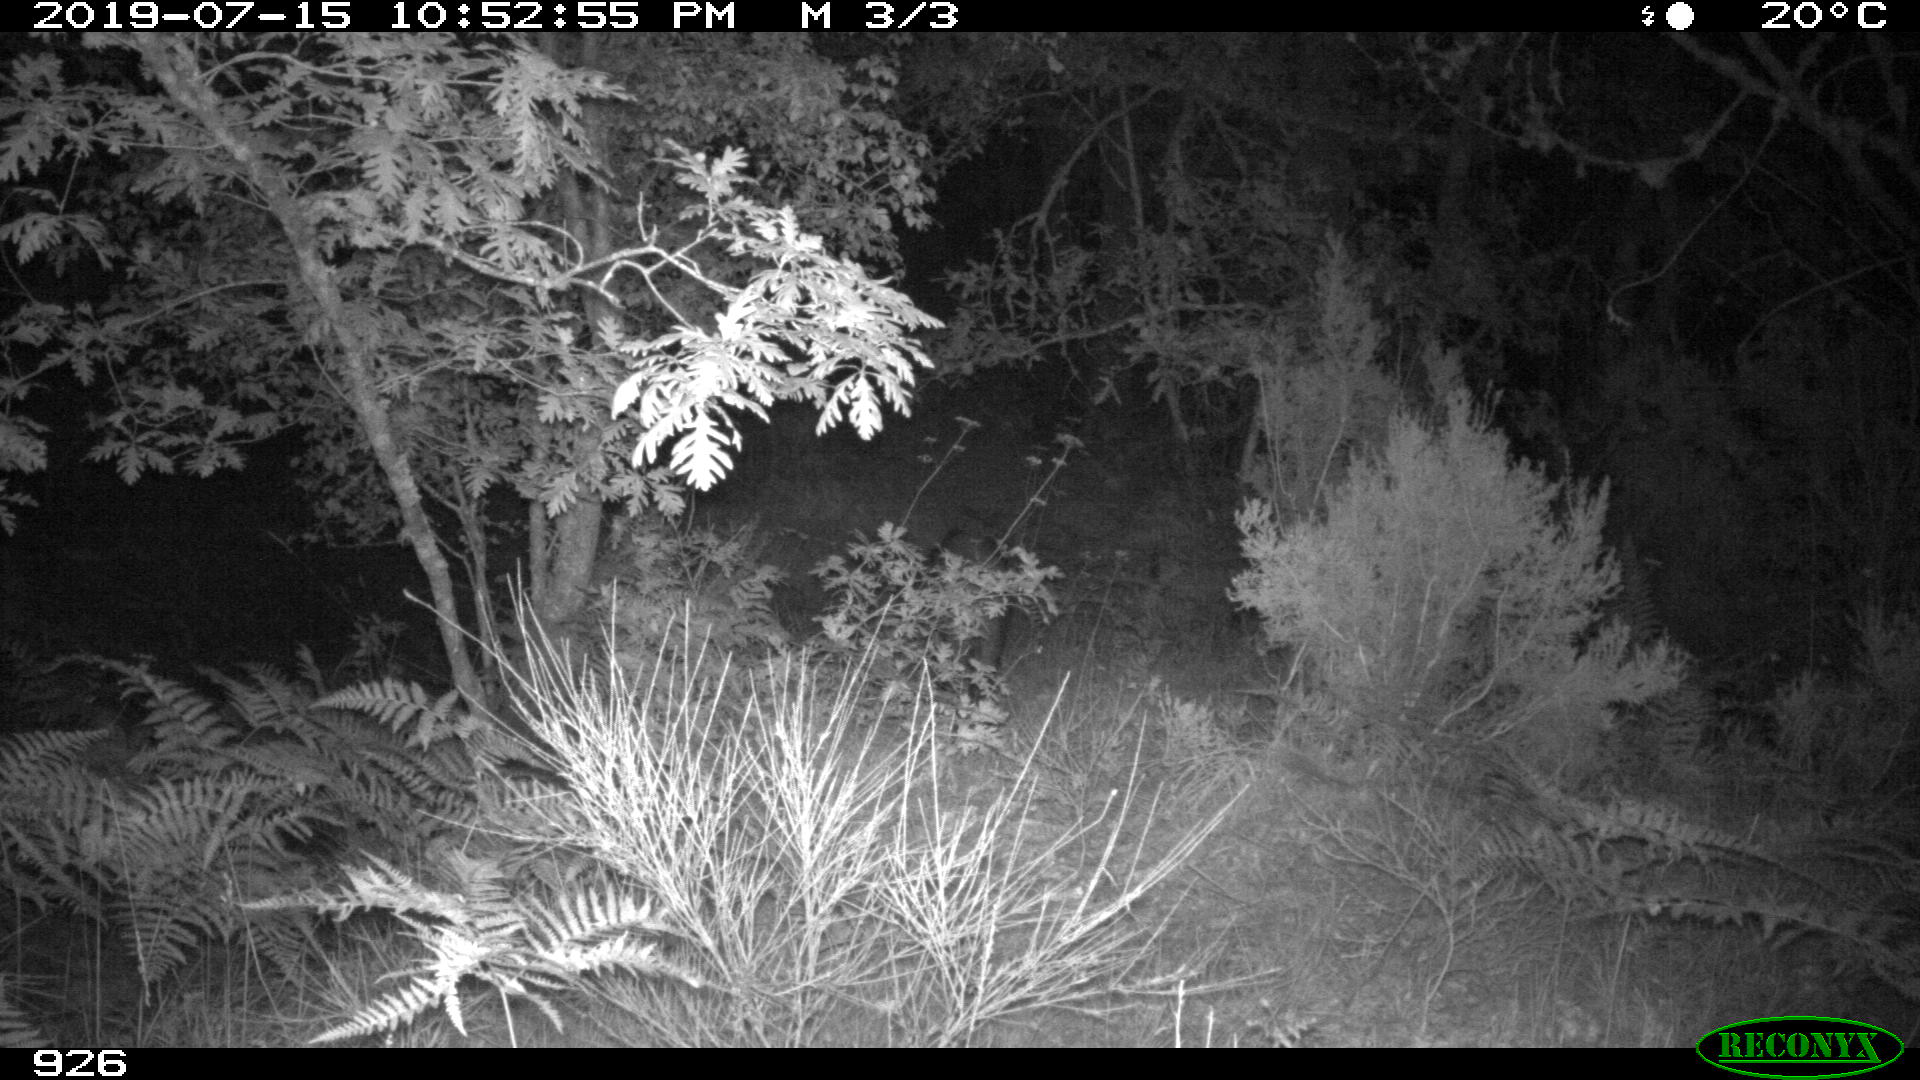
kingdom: Animalia
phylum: Chordata
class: Mammalia
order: Artiodactyla
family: Suidae
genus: Sus
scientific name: Sus scrofa
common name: Wild boar
